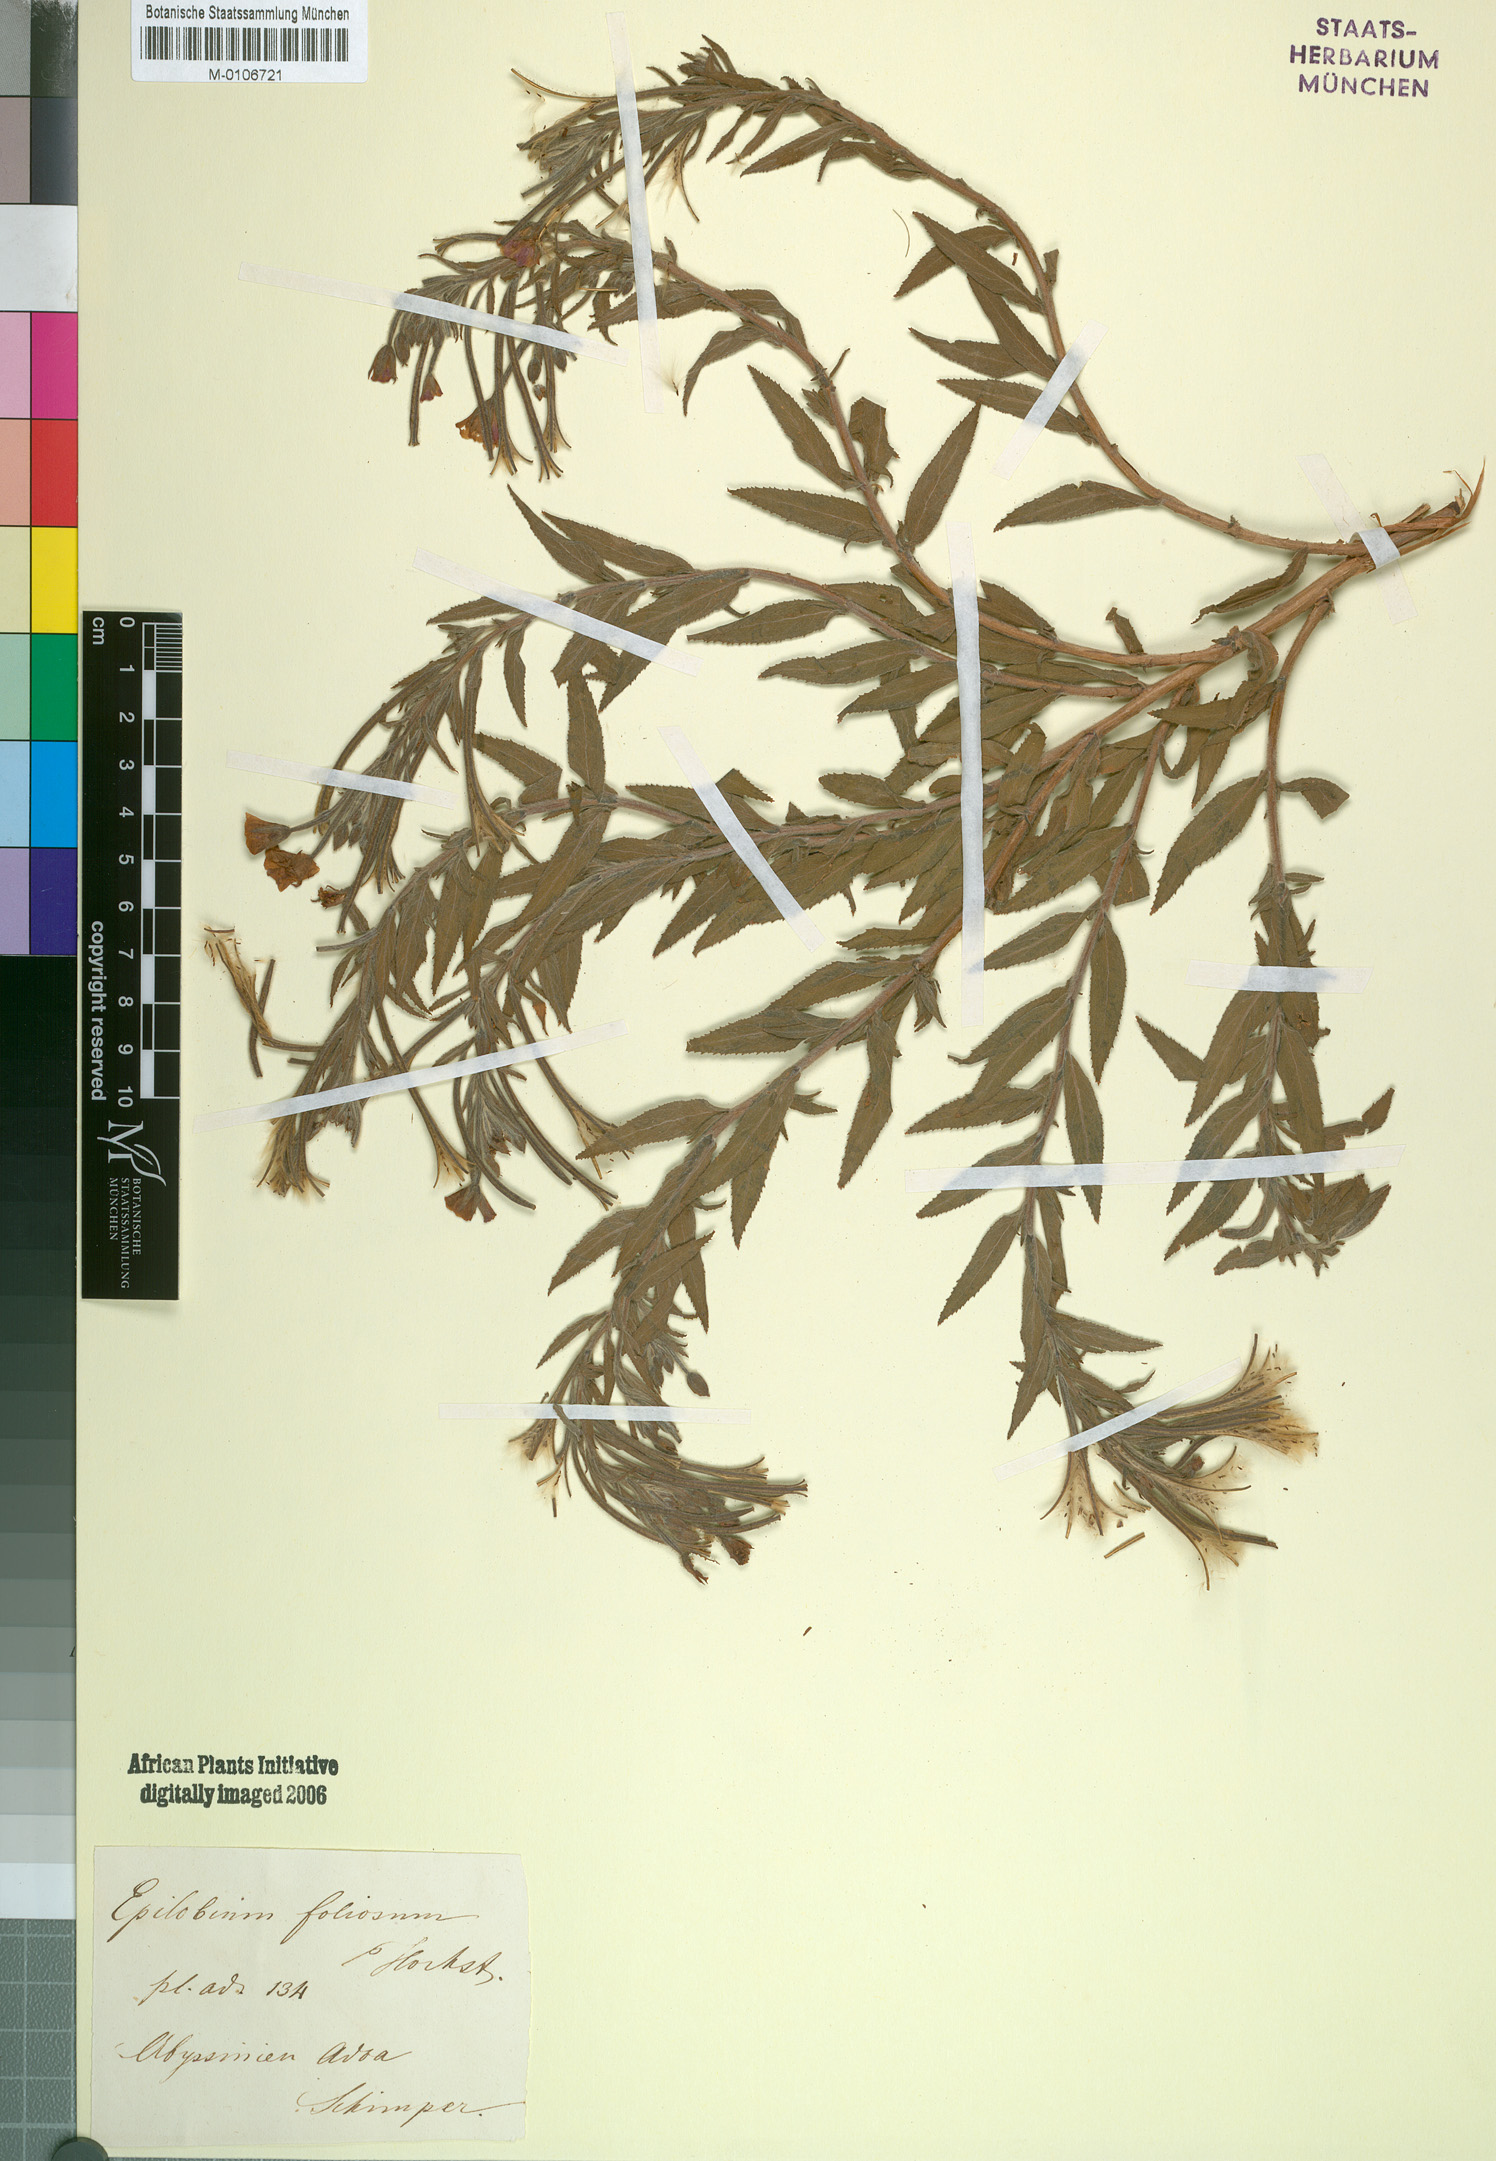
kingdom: Plantae
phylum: Tracheophyta
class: Magnoliopsida
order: Myrtales
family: Onagraceae
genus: Epilobium
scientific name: Epilobium hirsutum
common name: Great willowherb
